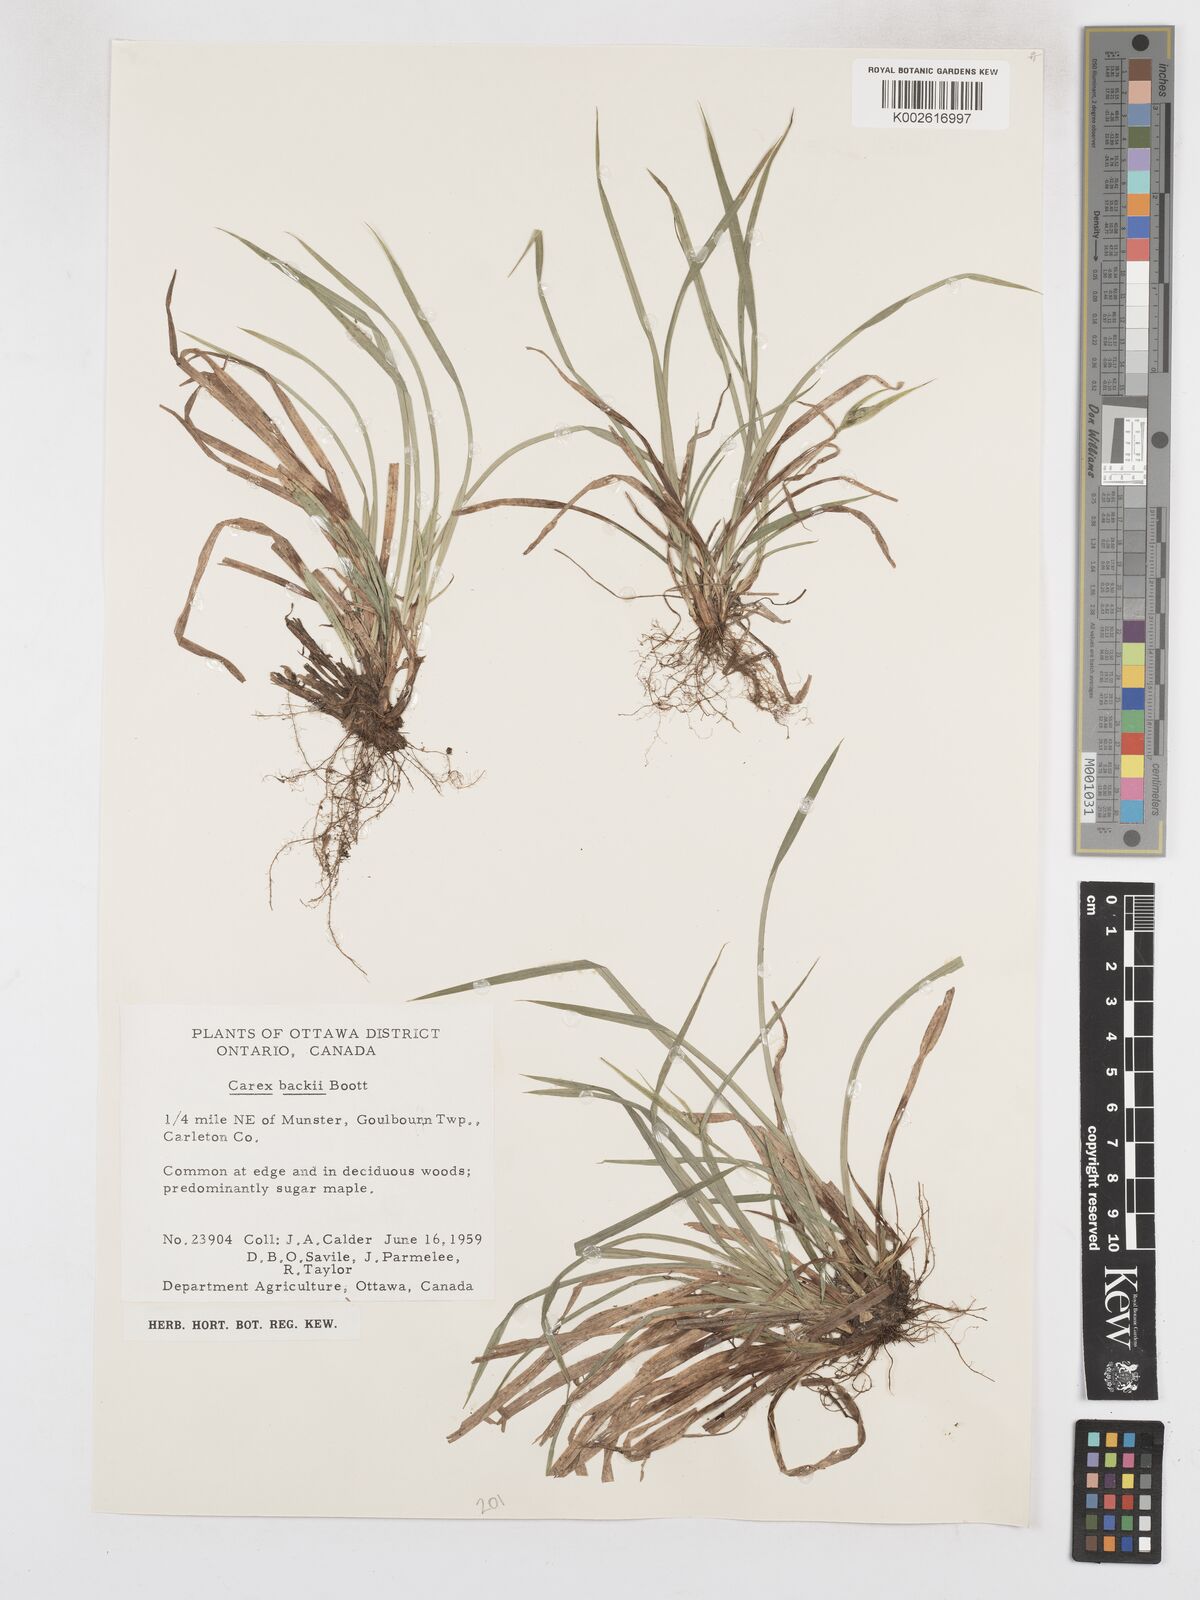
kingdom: Plantae
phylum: Tracheophyta
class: Liliopsida
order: Poales
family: Cyperaceae
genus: Carex
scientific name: Carex backii
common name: Back's sedge
